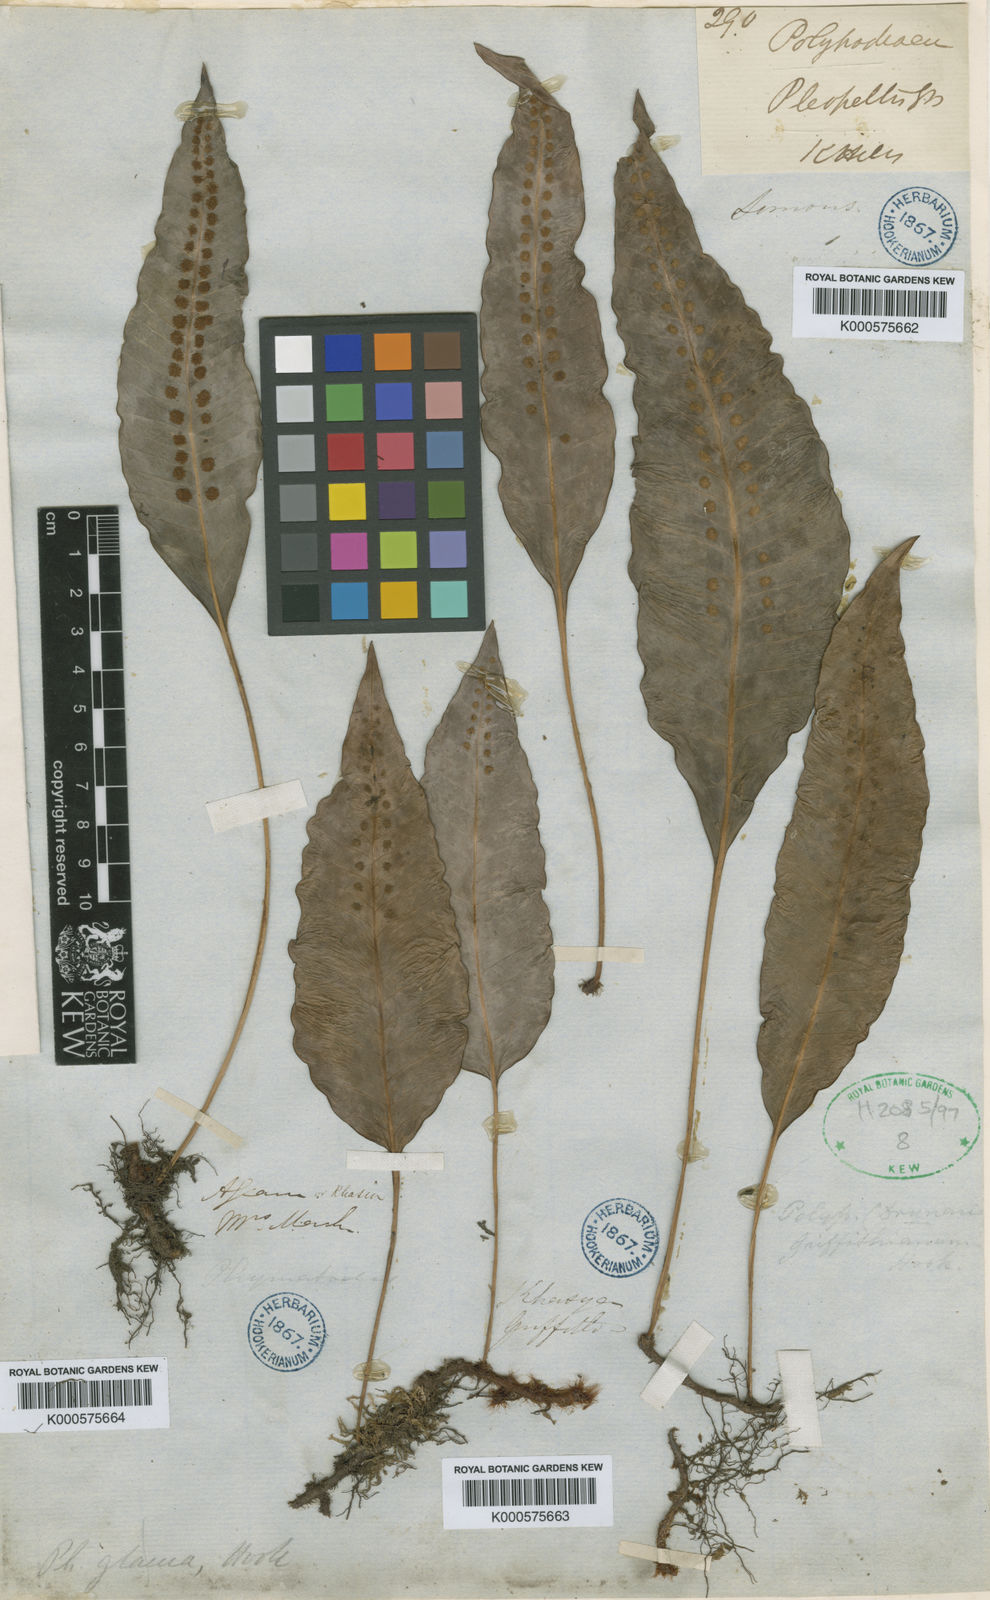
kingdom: Plantae
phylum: Tracheophyta
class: Polypodiopsida
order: Polypodiales
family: Polypodiaceae
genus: Selliguea
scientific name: Selliguea griffithiana
